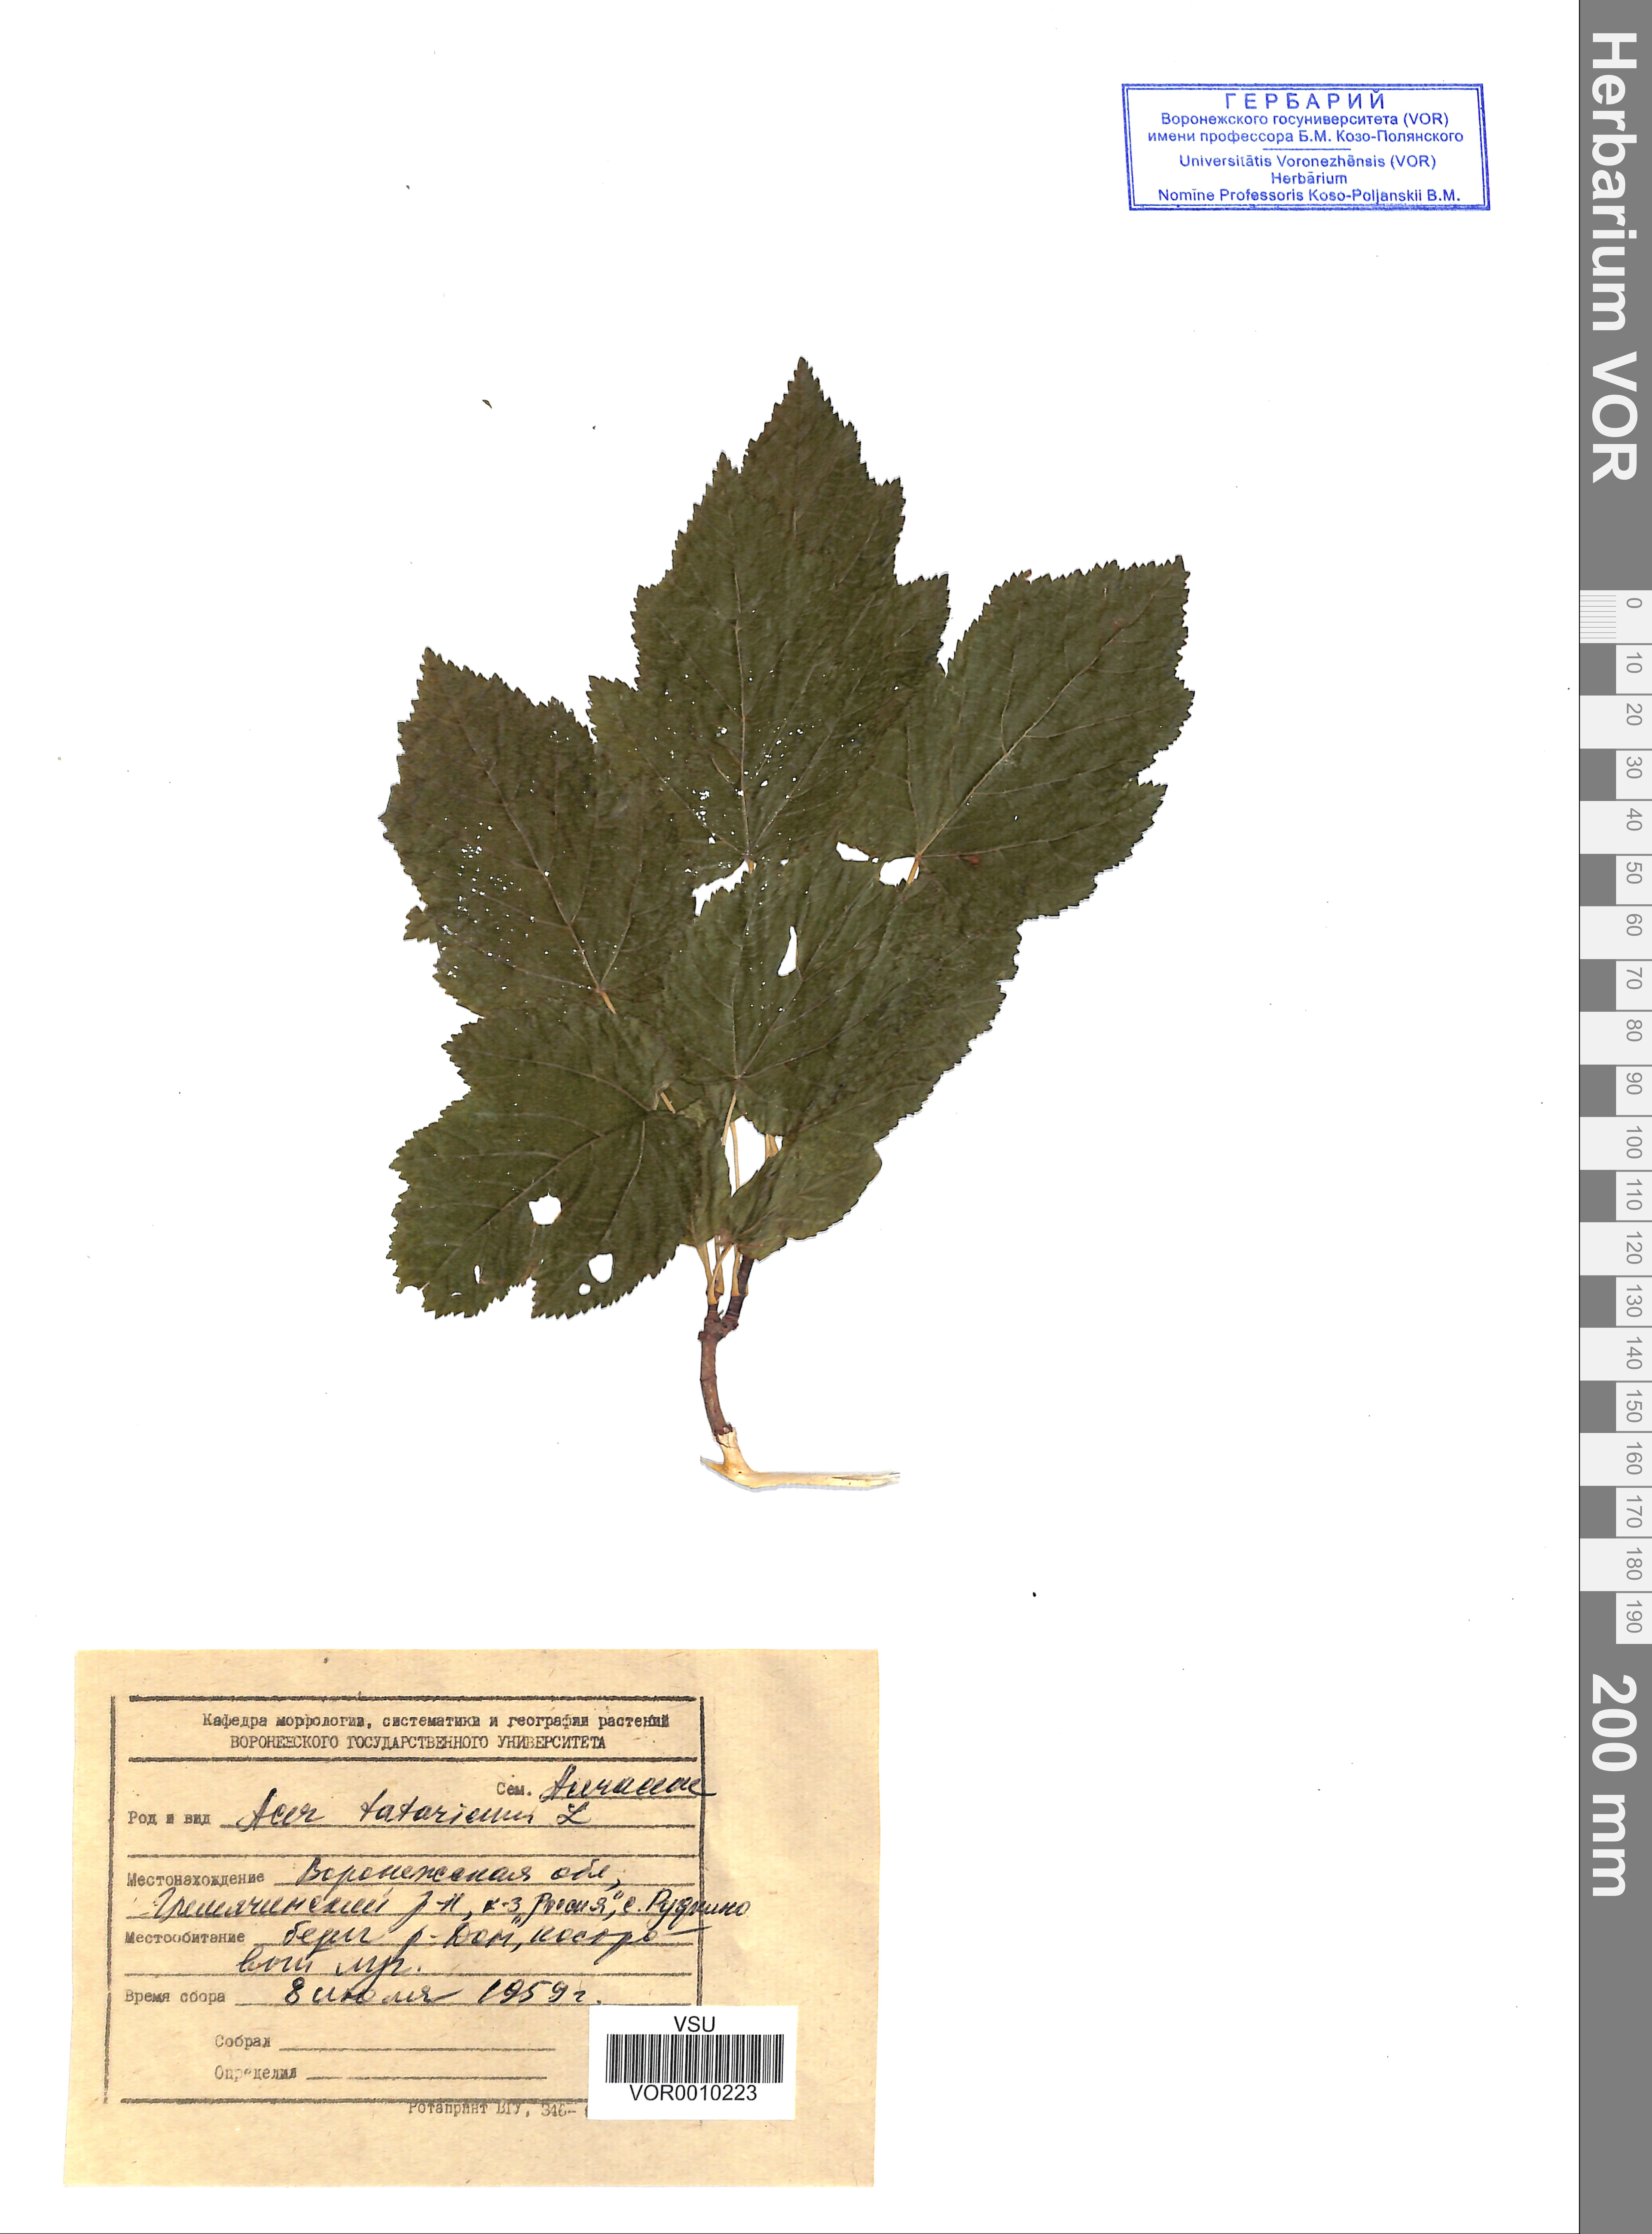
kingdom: Plantae
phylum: Tracheophyta
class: Magnoliopsida
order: Sapindales
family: Sapindaceae
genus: Acer
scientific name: Acer tataricum
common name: Tartar maple
